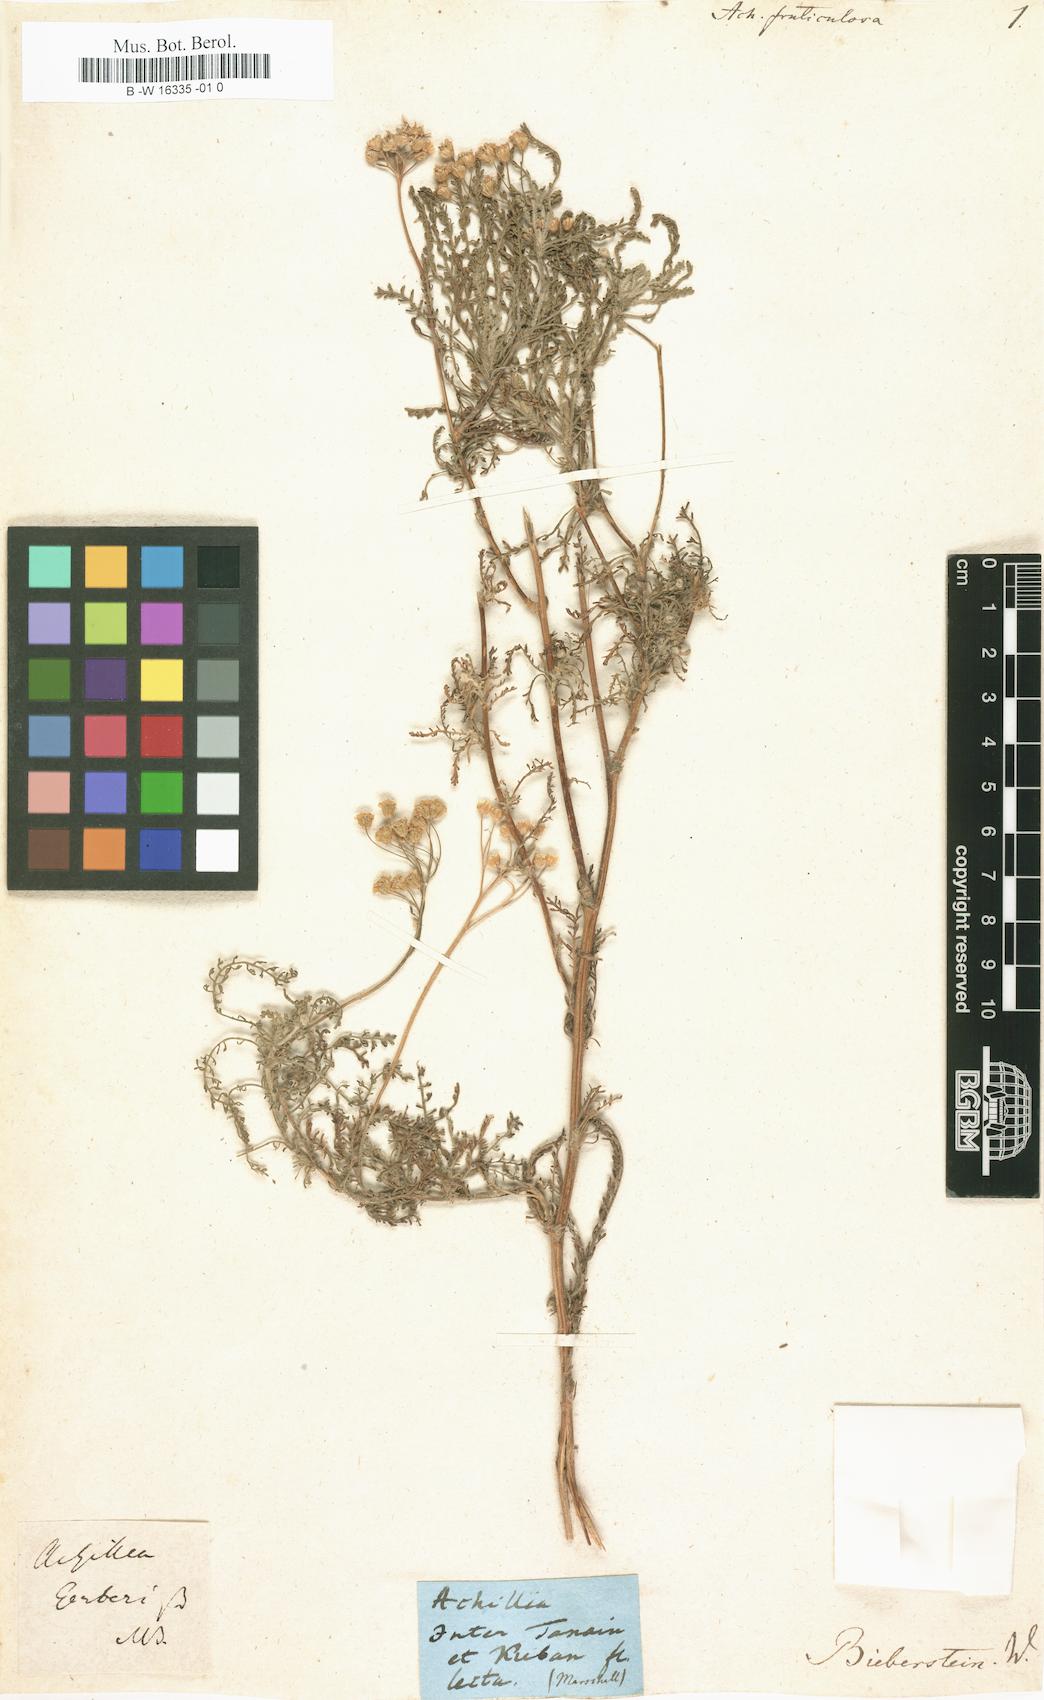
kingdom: Plantae
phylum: Tracheophyta
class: Magnoliopsida
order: Asterales
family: Asteraceae
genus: Achillea
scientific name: Achillea micrantha
